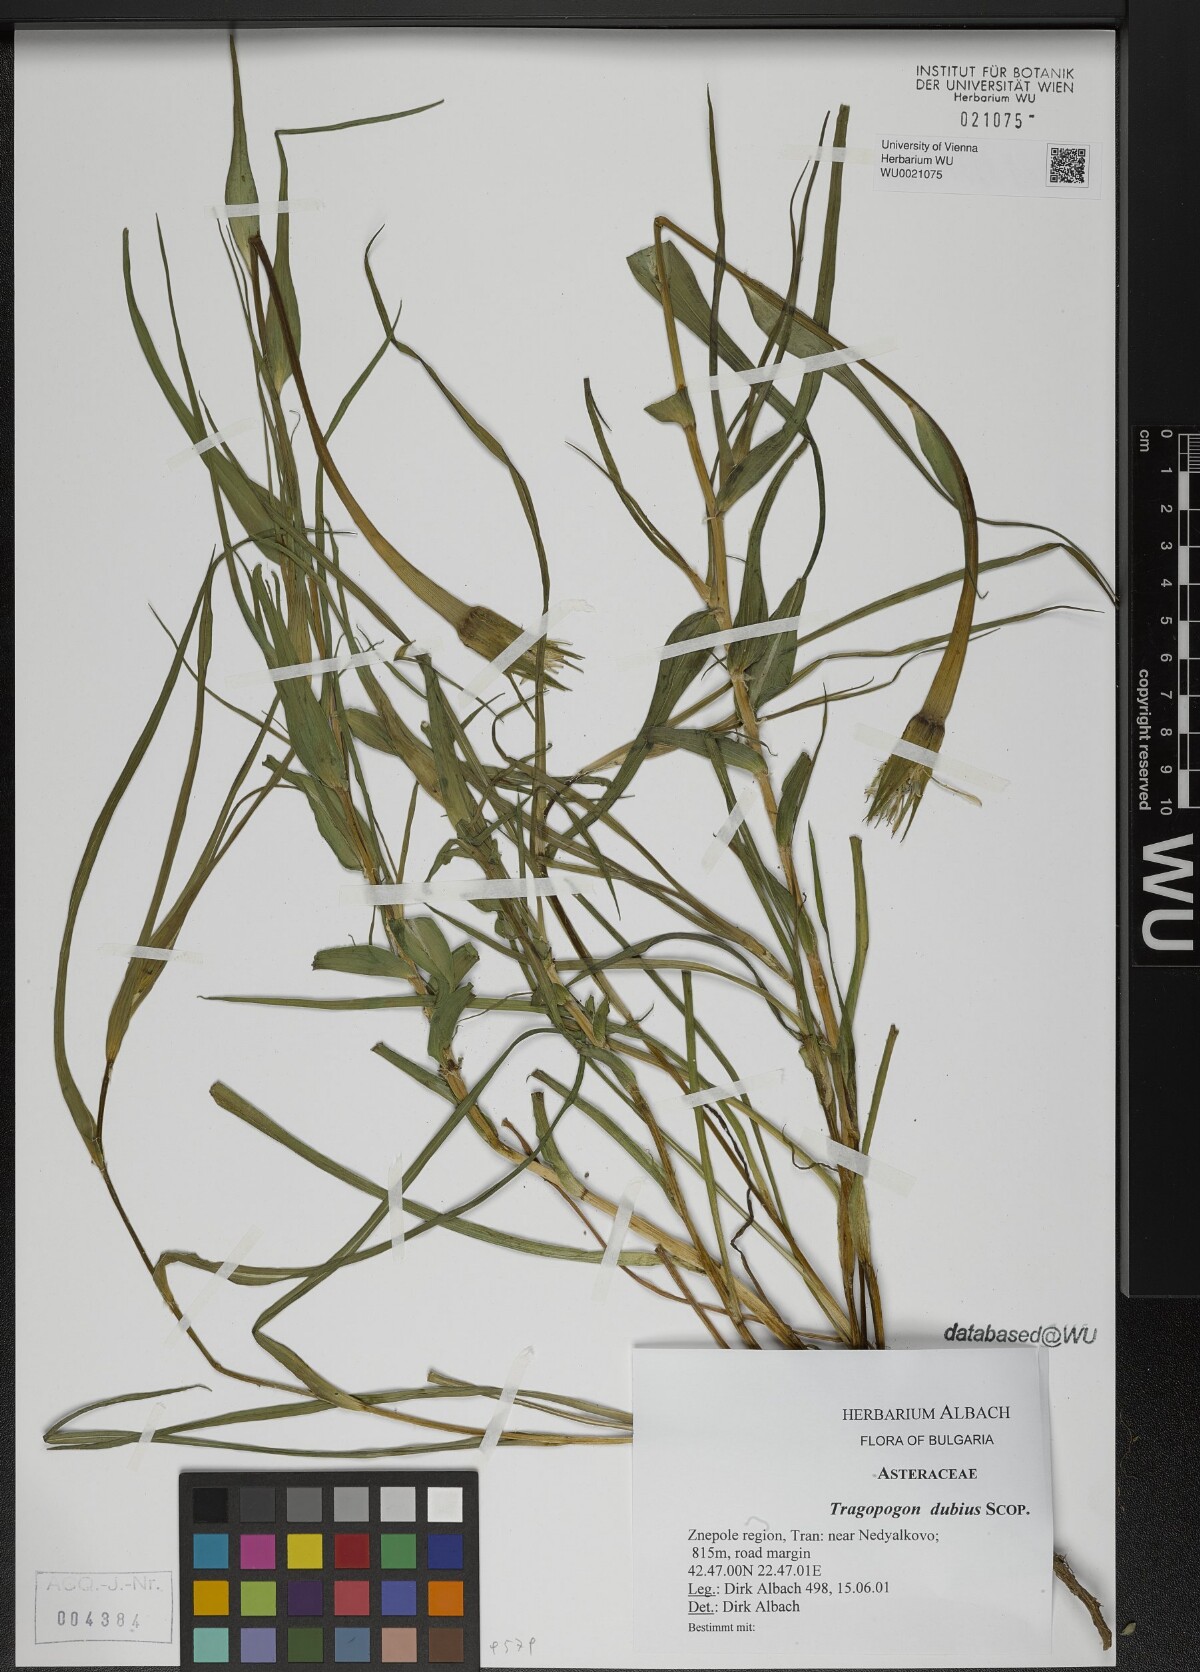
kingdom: Plantae
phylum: Tracheophyta
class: Magnoliopsida
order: Asterales
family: Asteraceae
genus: Tragopogon
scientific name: Tragopogon dubius
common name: Yellow salsify
